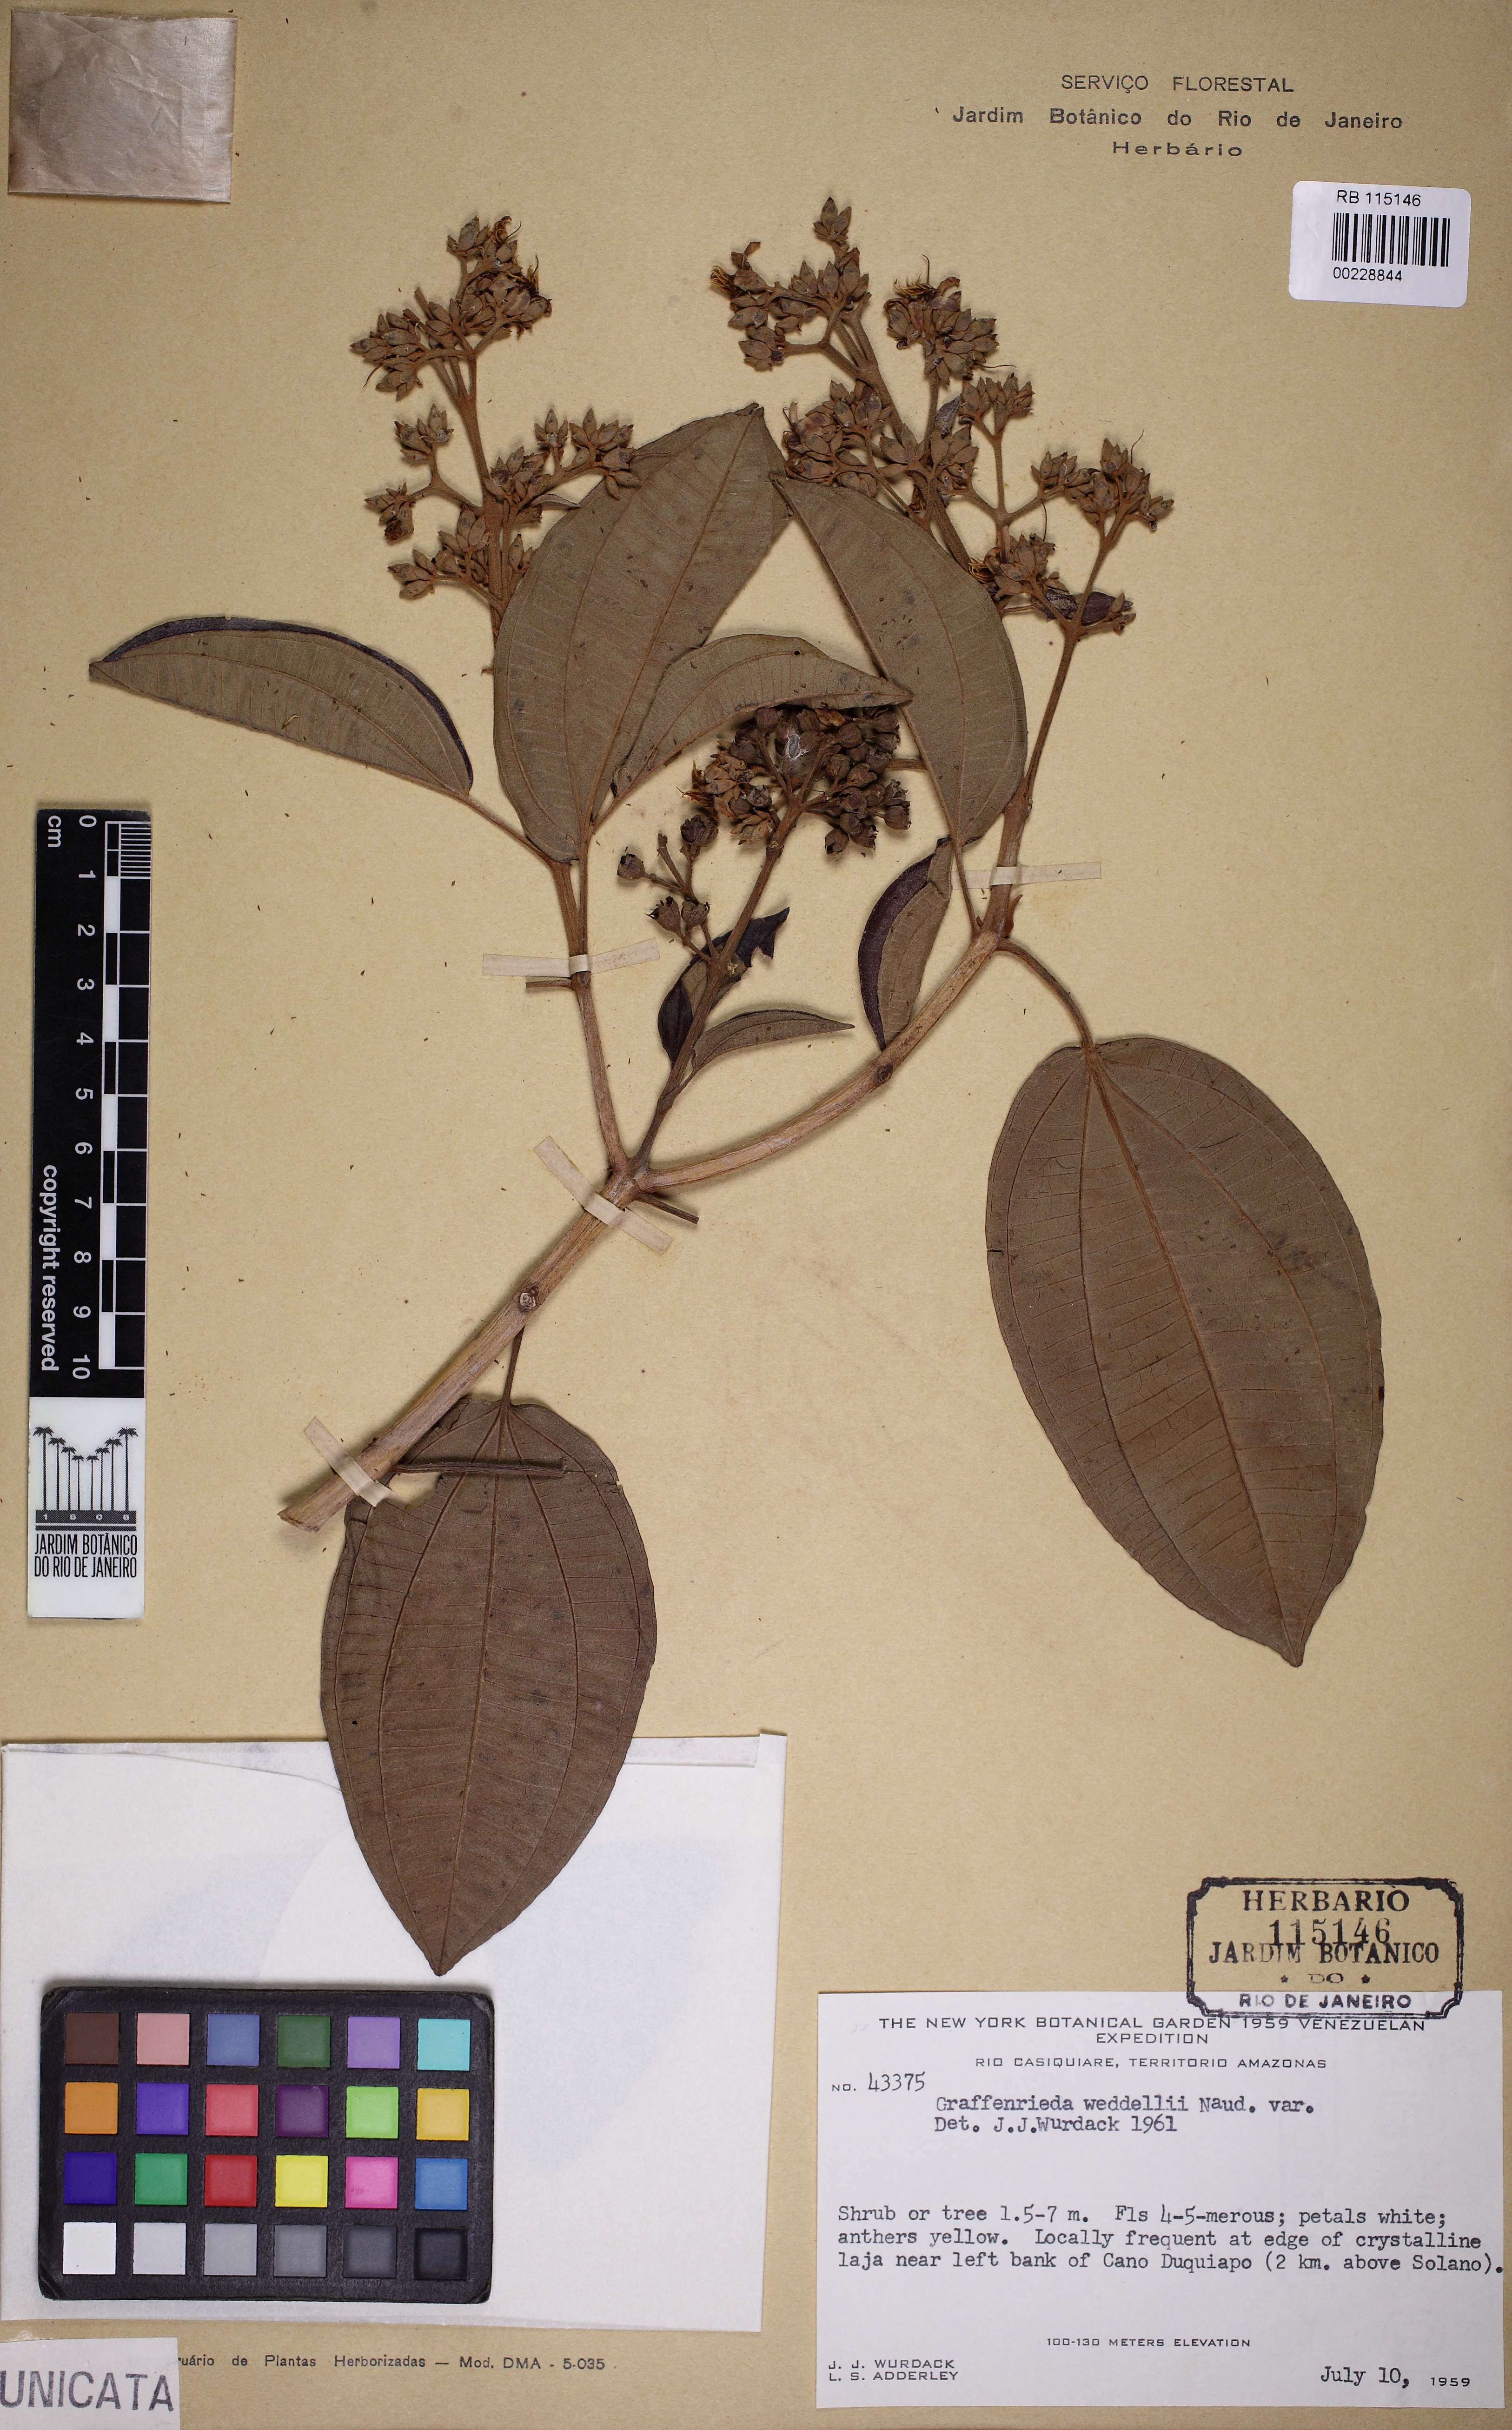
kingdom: Plantae
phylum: Tracheophyta
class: Magnoliopsida
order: Myrtales
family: Melastomataceae
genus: Graffenrieda
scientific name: Graffenrieda weddellii
